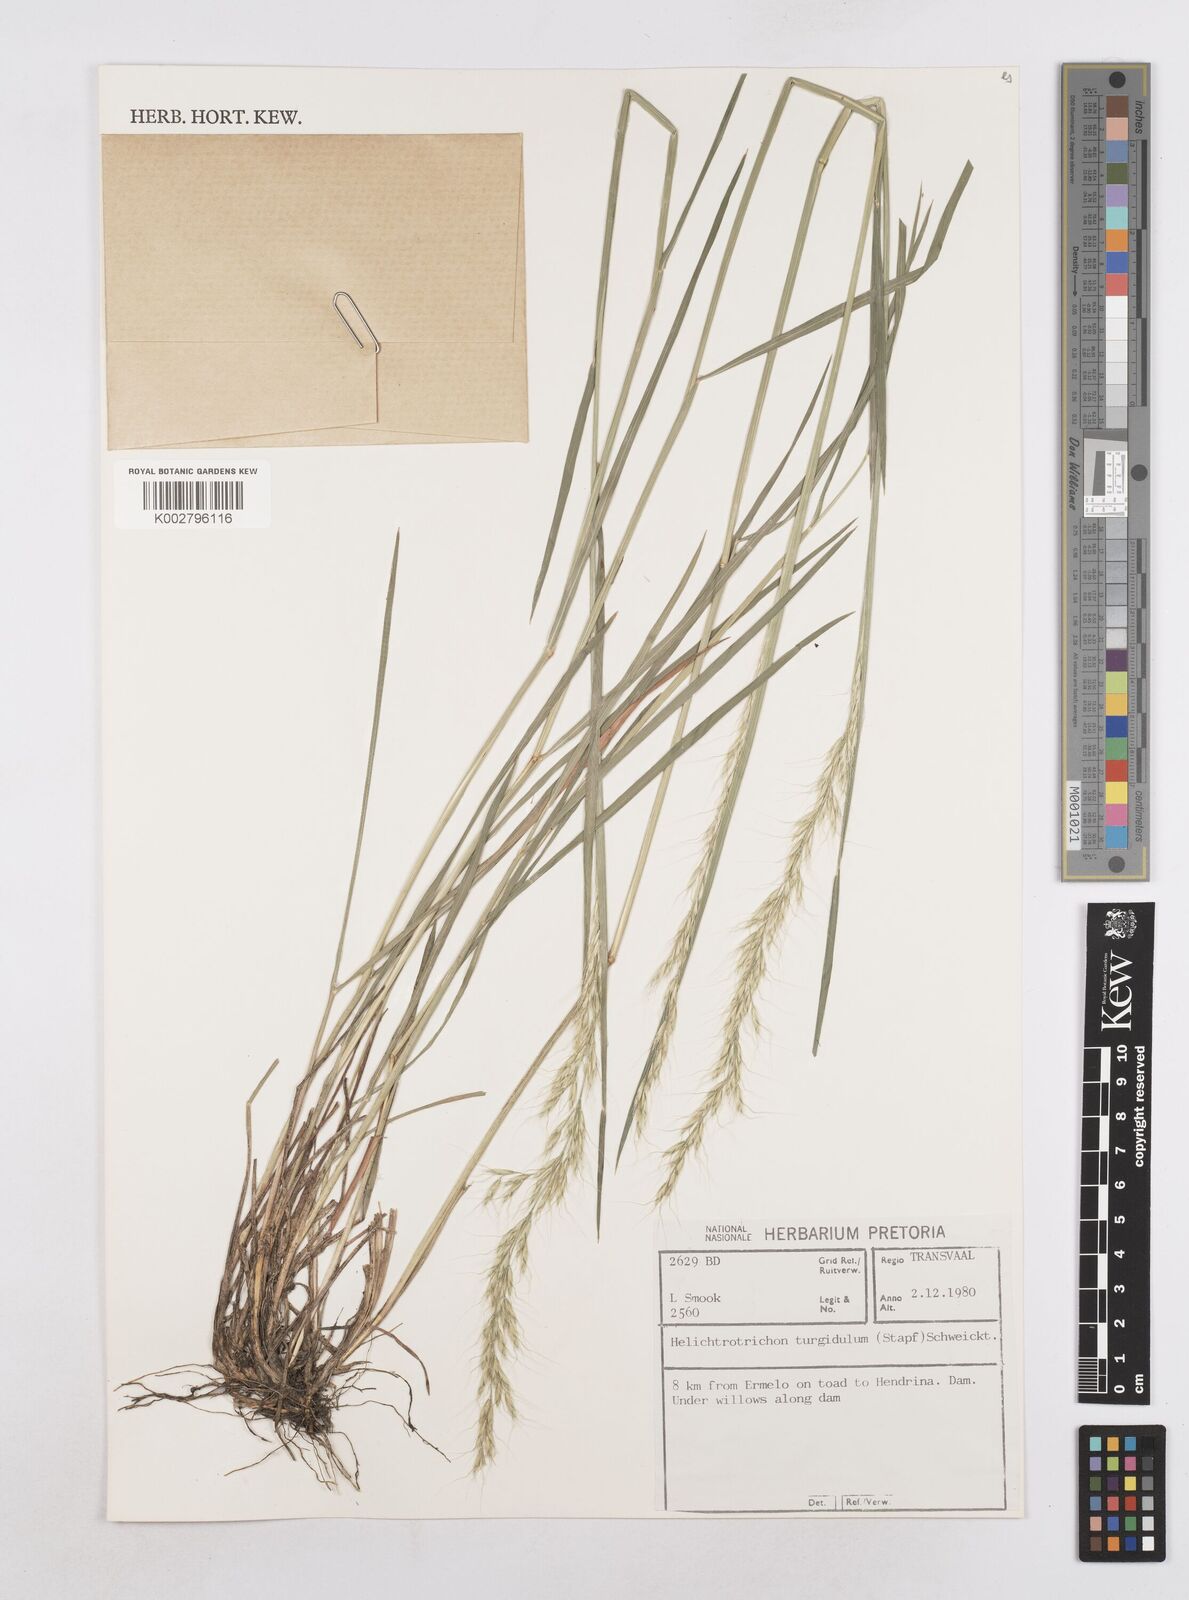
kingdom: Plantae
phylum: Tracheophyta
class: Liliopsida
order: Poales
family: Poaceae
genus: Trisetopsis
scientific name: Trisetopsis imberbis
